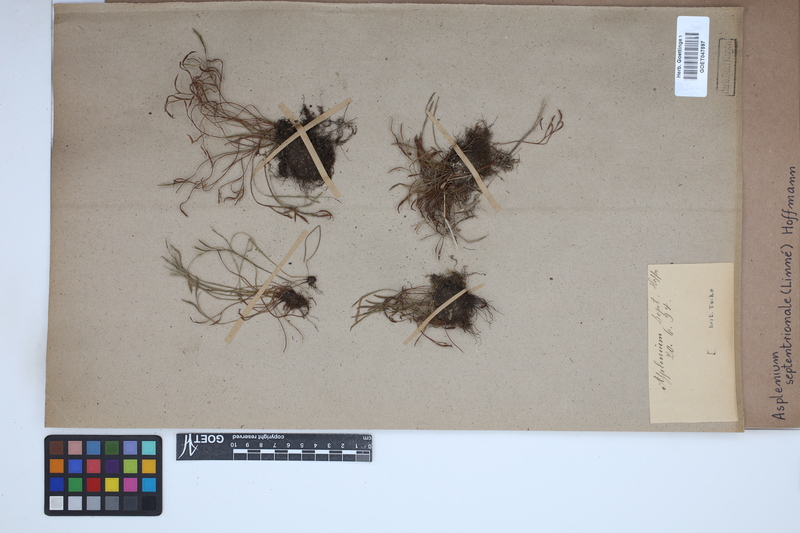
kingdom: Plantae
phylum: Tracheophyta
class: Polypodiopsida
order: Polypodiales
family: Aspleniaceae
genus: Asplenium
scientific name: Asplenium septentrionale
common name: Forked spleenwort
